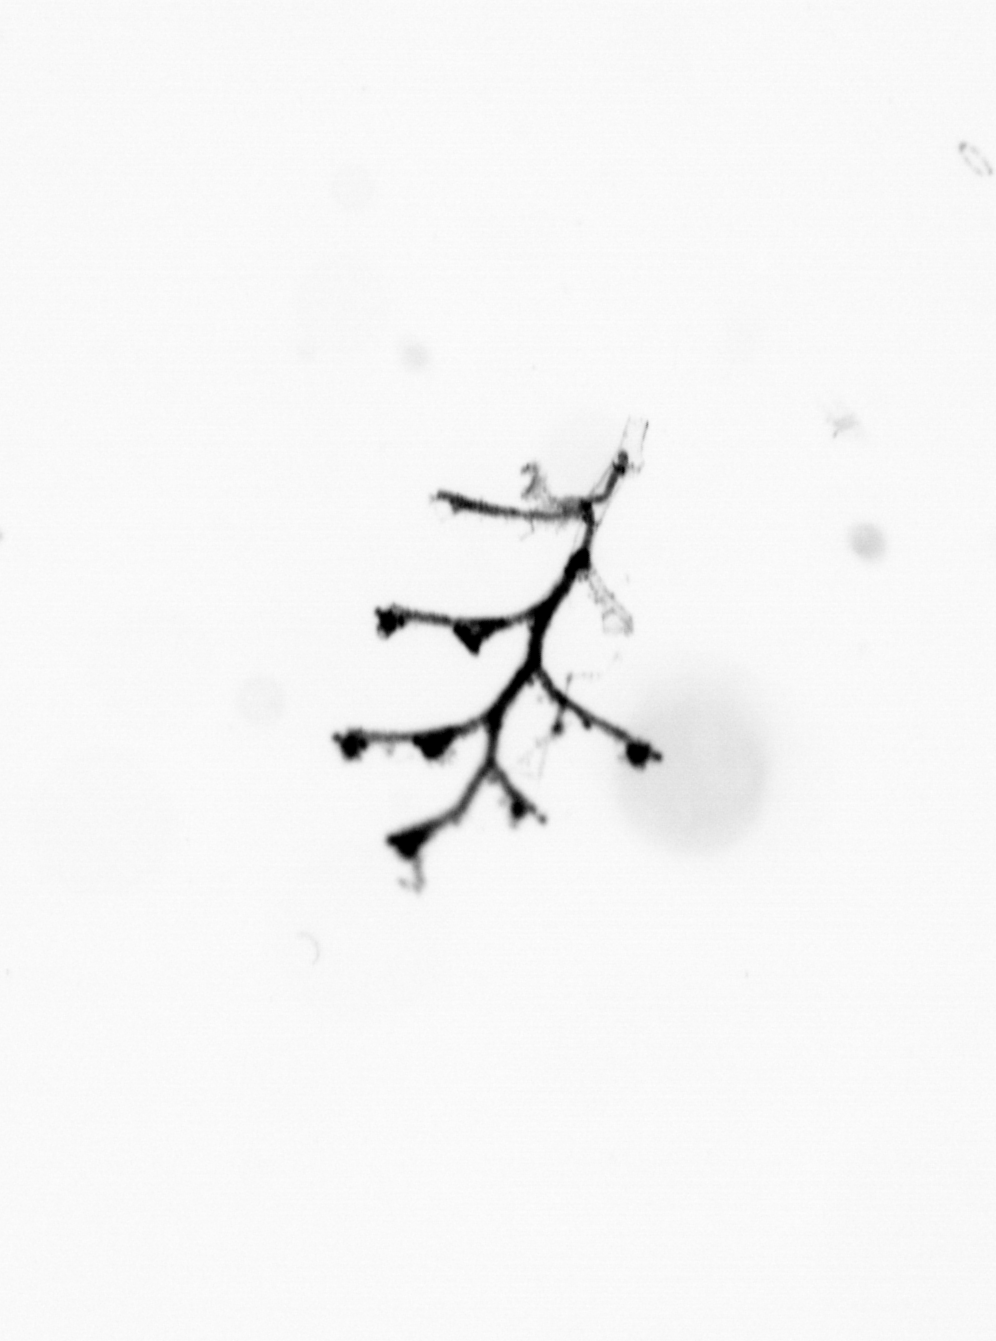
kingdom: Animalia
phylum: Cnidaria
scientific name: Cnidaria
